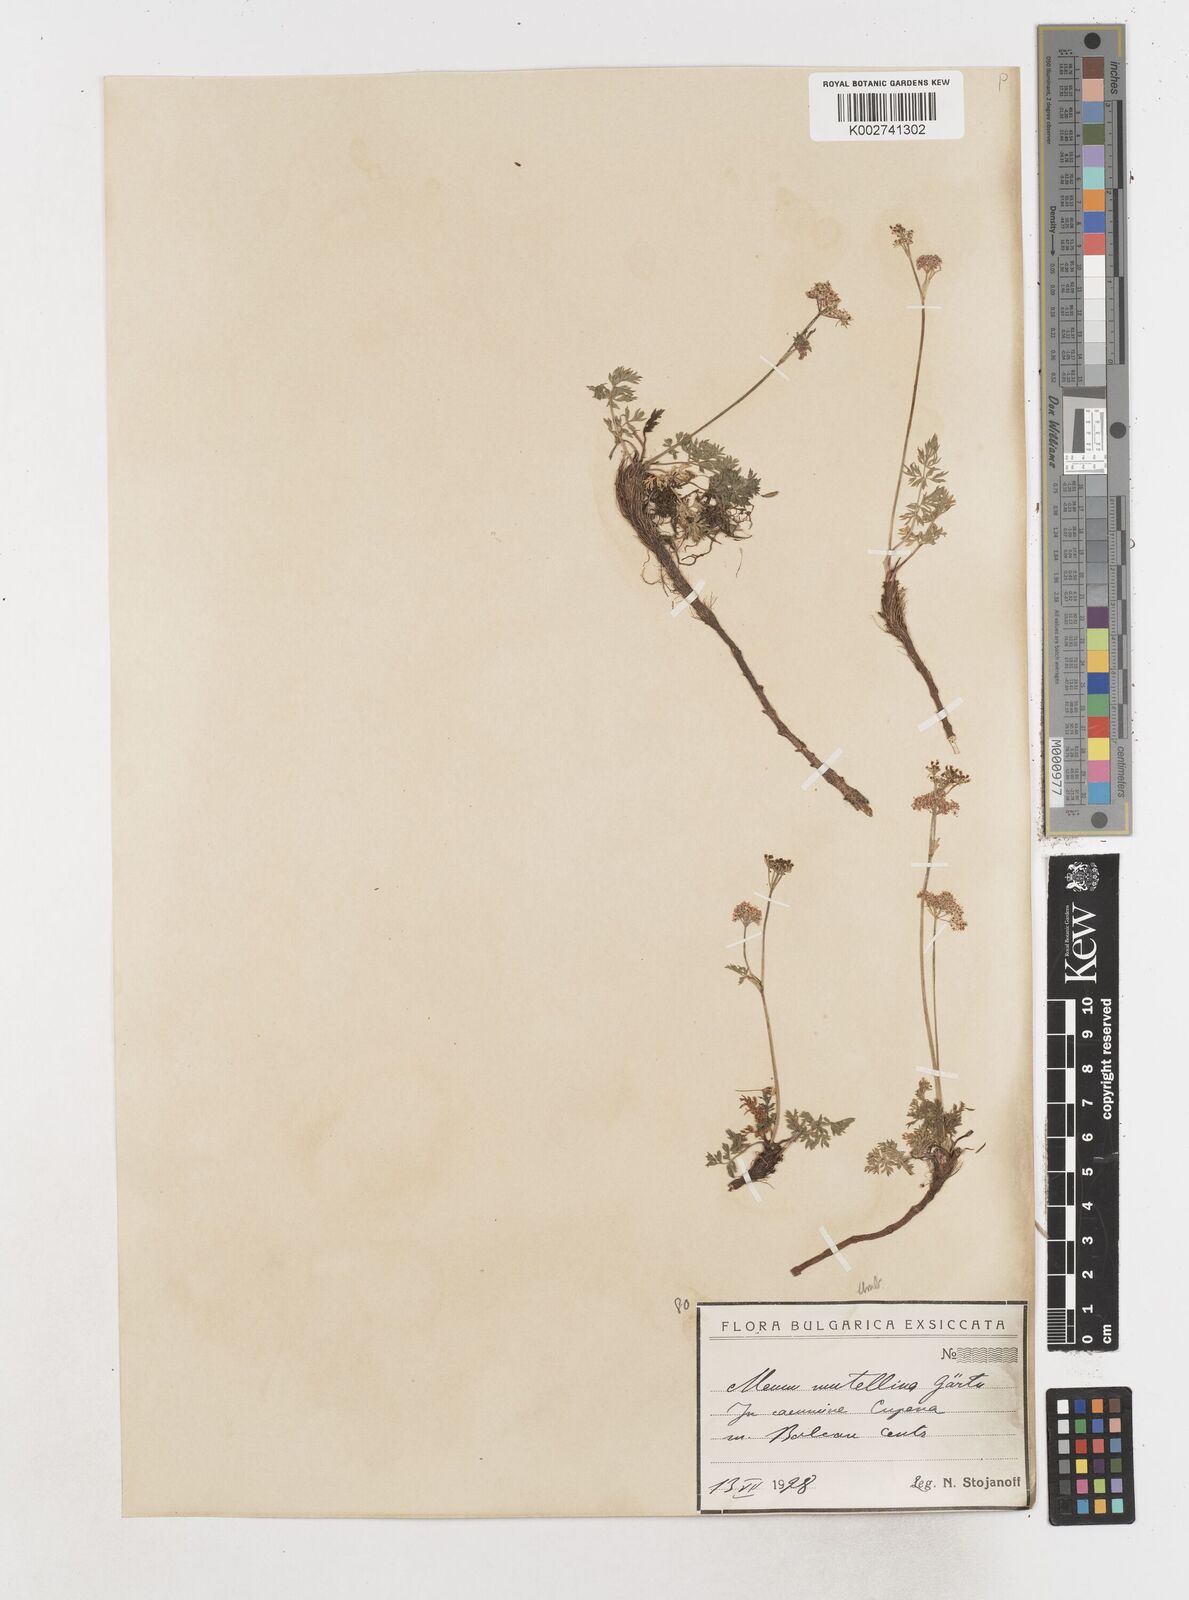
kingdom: Plantae
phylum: Tracheophyta
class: Magnoliopsida
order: Apiales
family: Apiaceae
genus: Mutellina
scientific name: Mutellina adonidifolia
